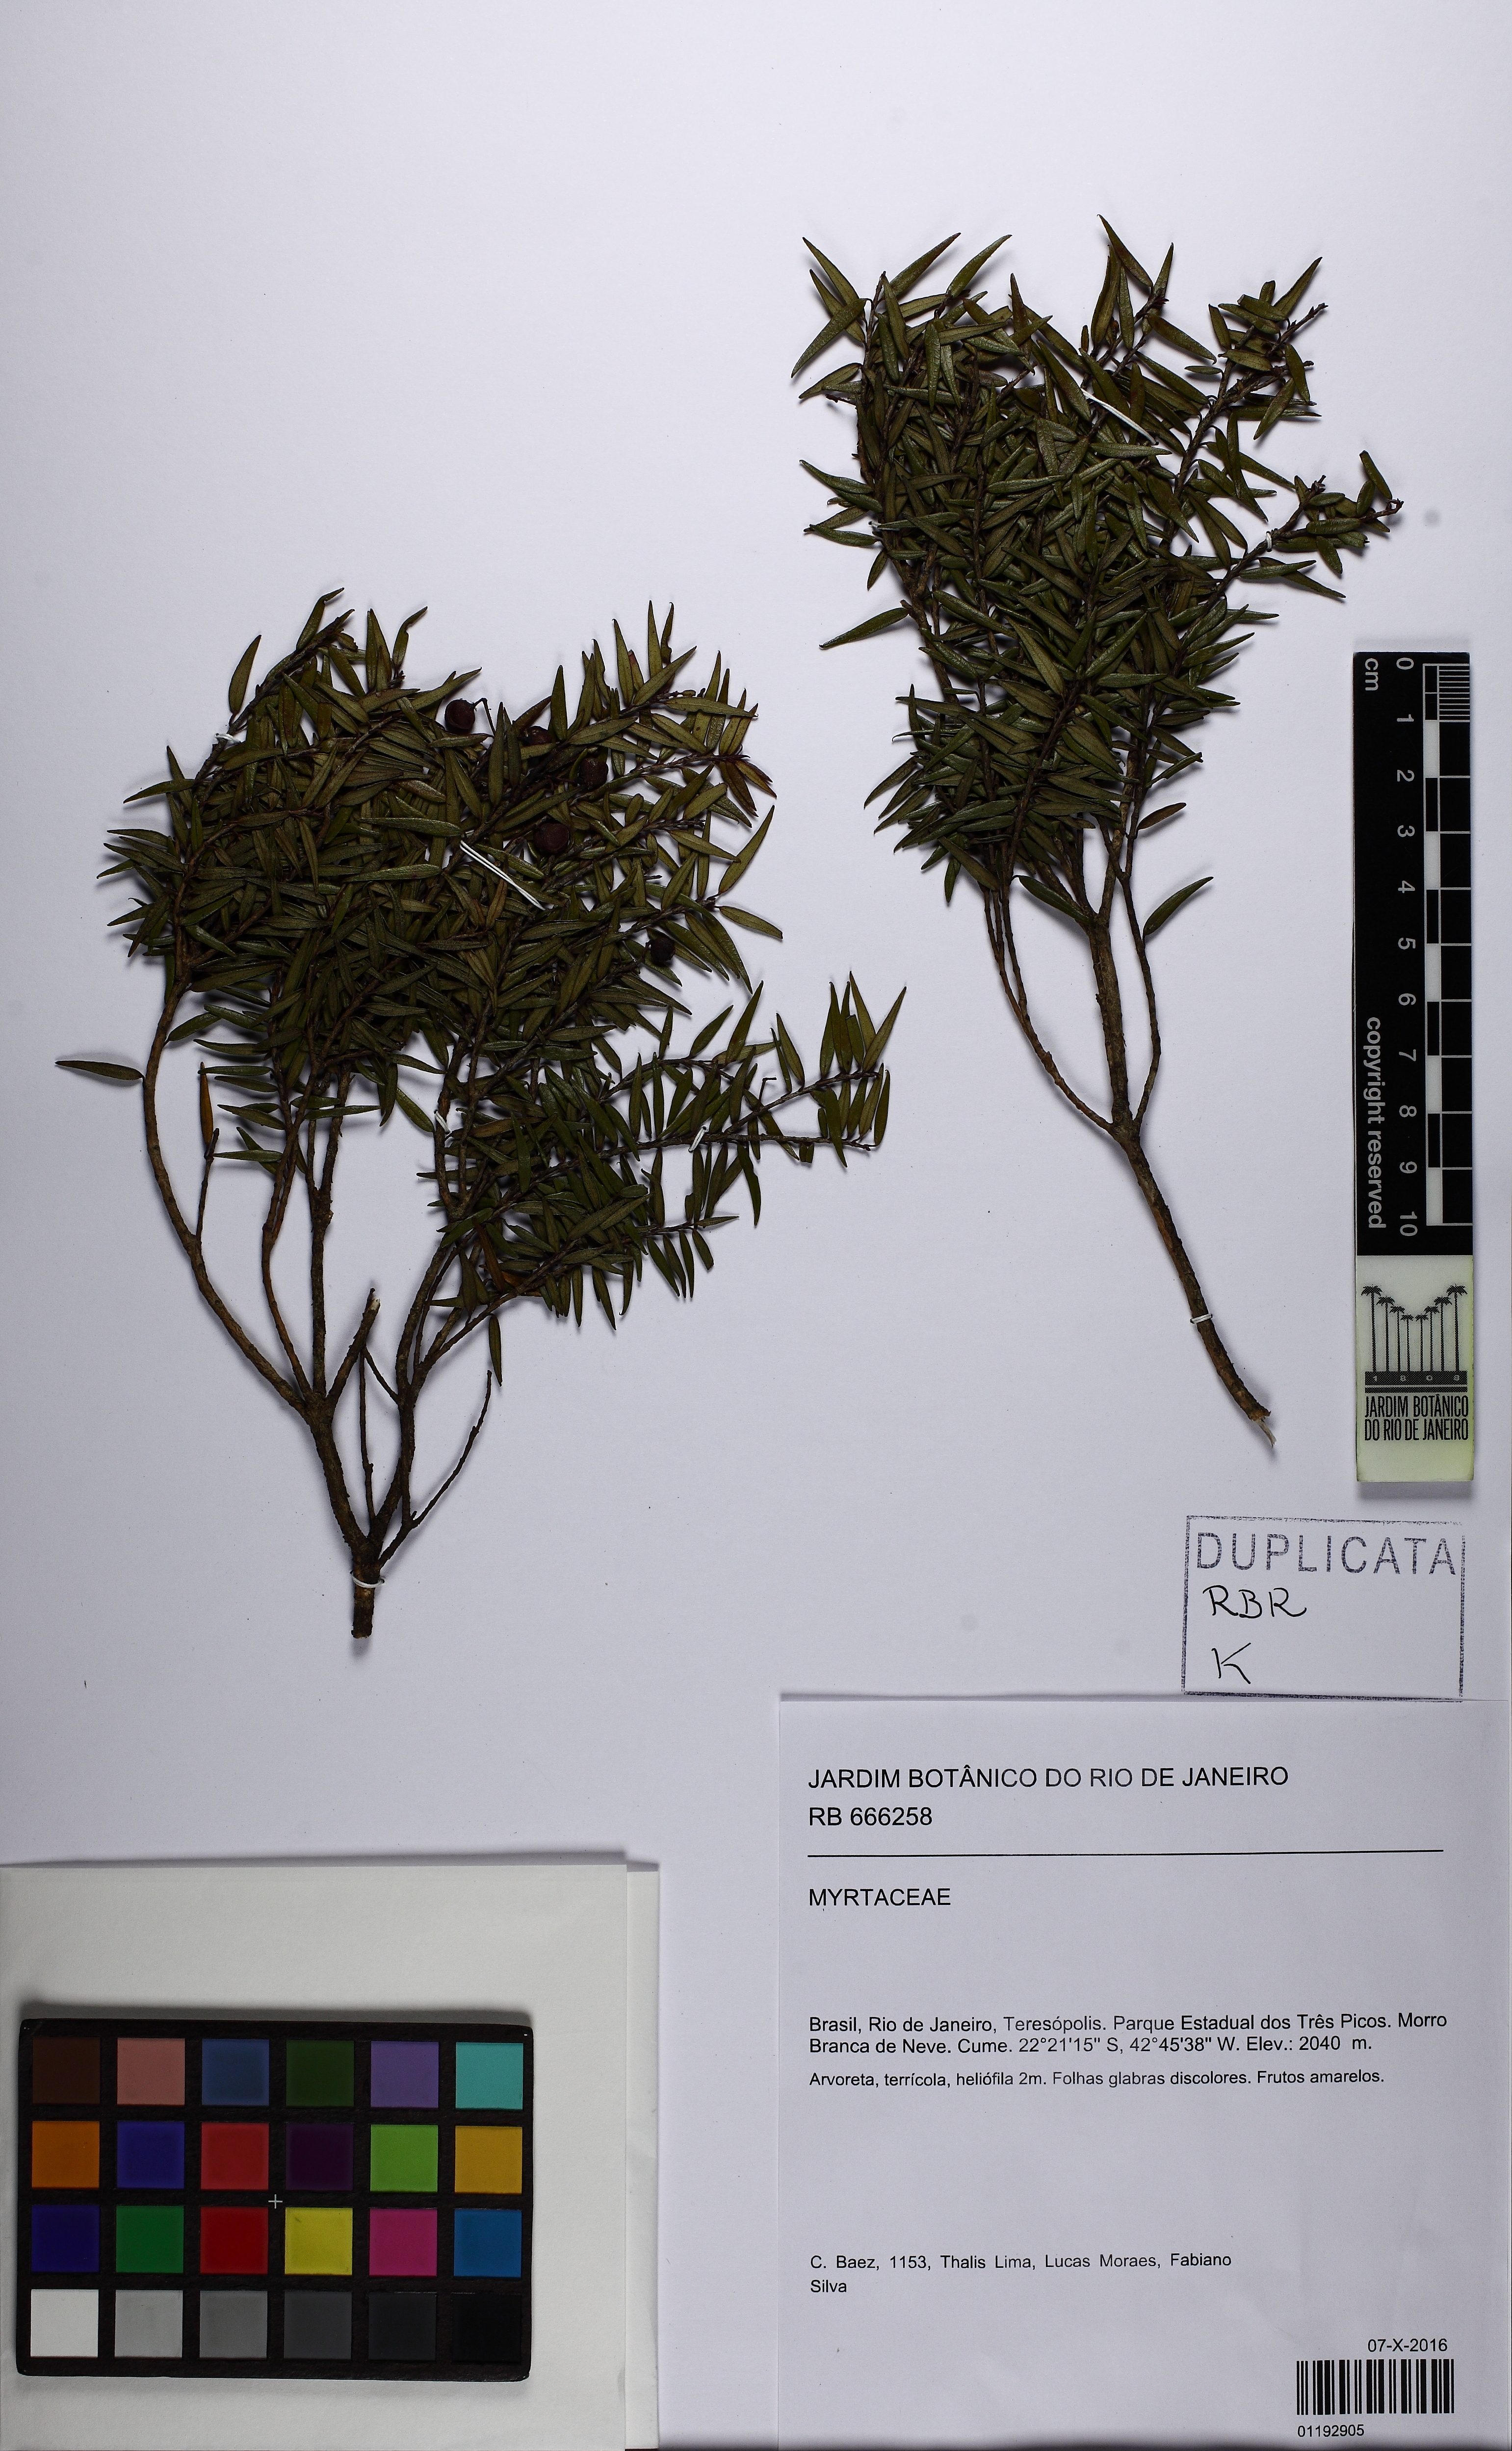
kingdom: Plantae
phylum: Tracheophyta
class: Magnoliopsida
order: Myrtales
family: Myrtaceae
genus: Blepharocalyx
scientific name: Blepharocalyx salicifolius
